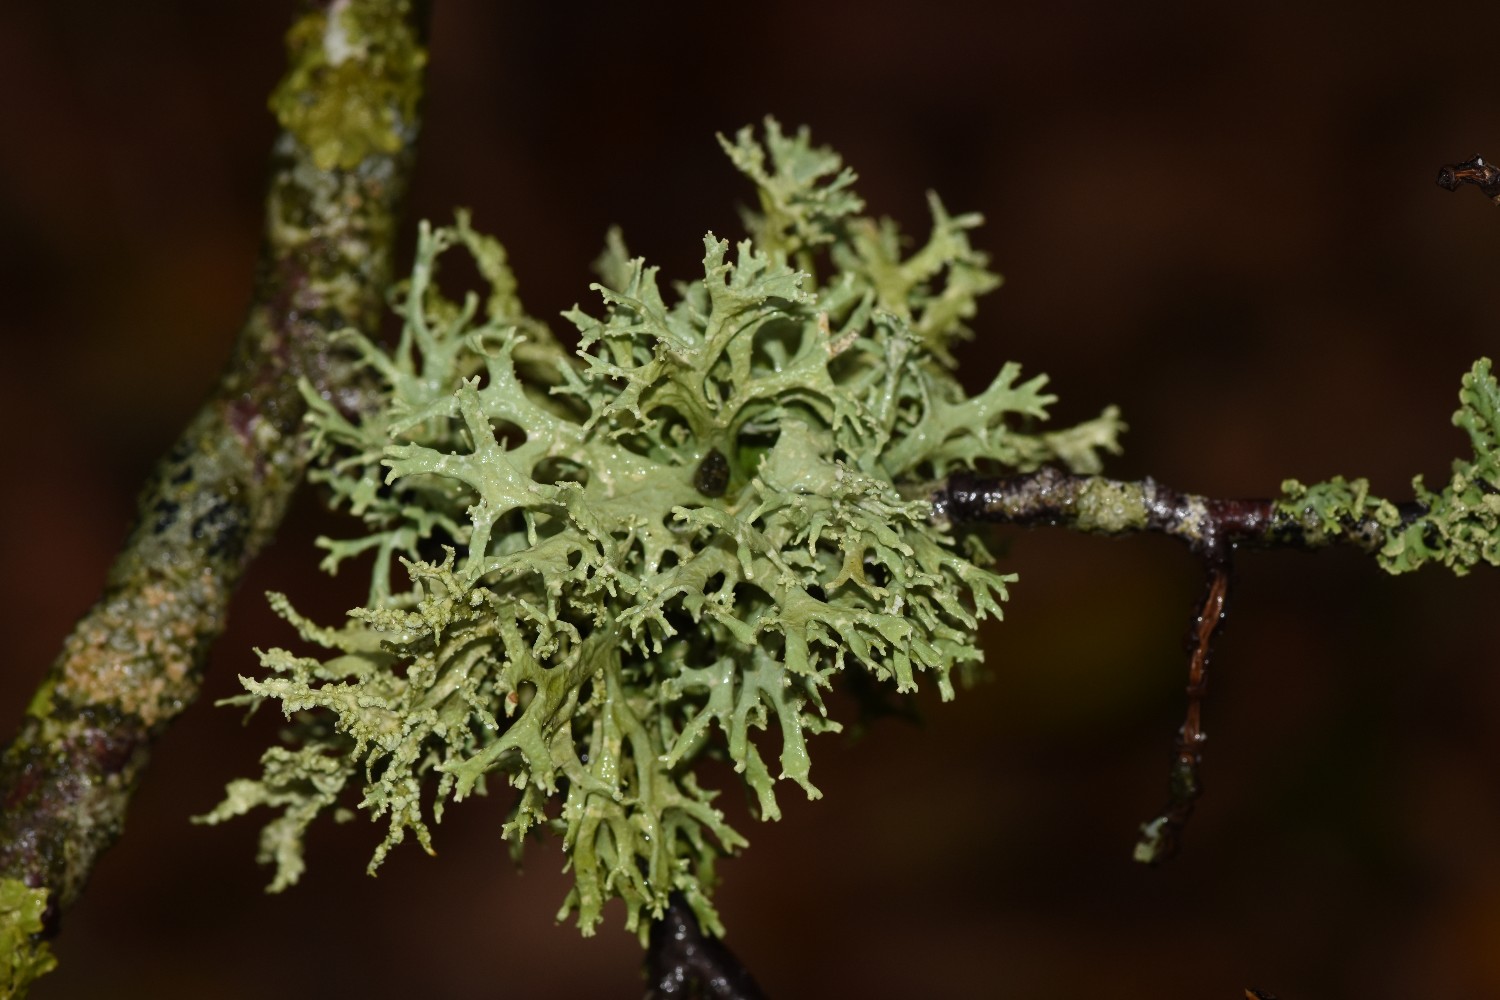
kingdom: Fungi
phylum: Ascomycota
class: Lecanoromycetes
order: Lecanorales
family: Parmeliaceae
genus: Evernia
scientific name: Evernia prunastri
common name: almindelig slåenlav
